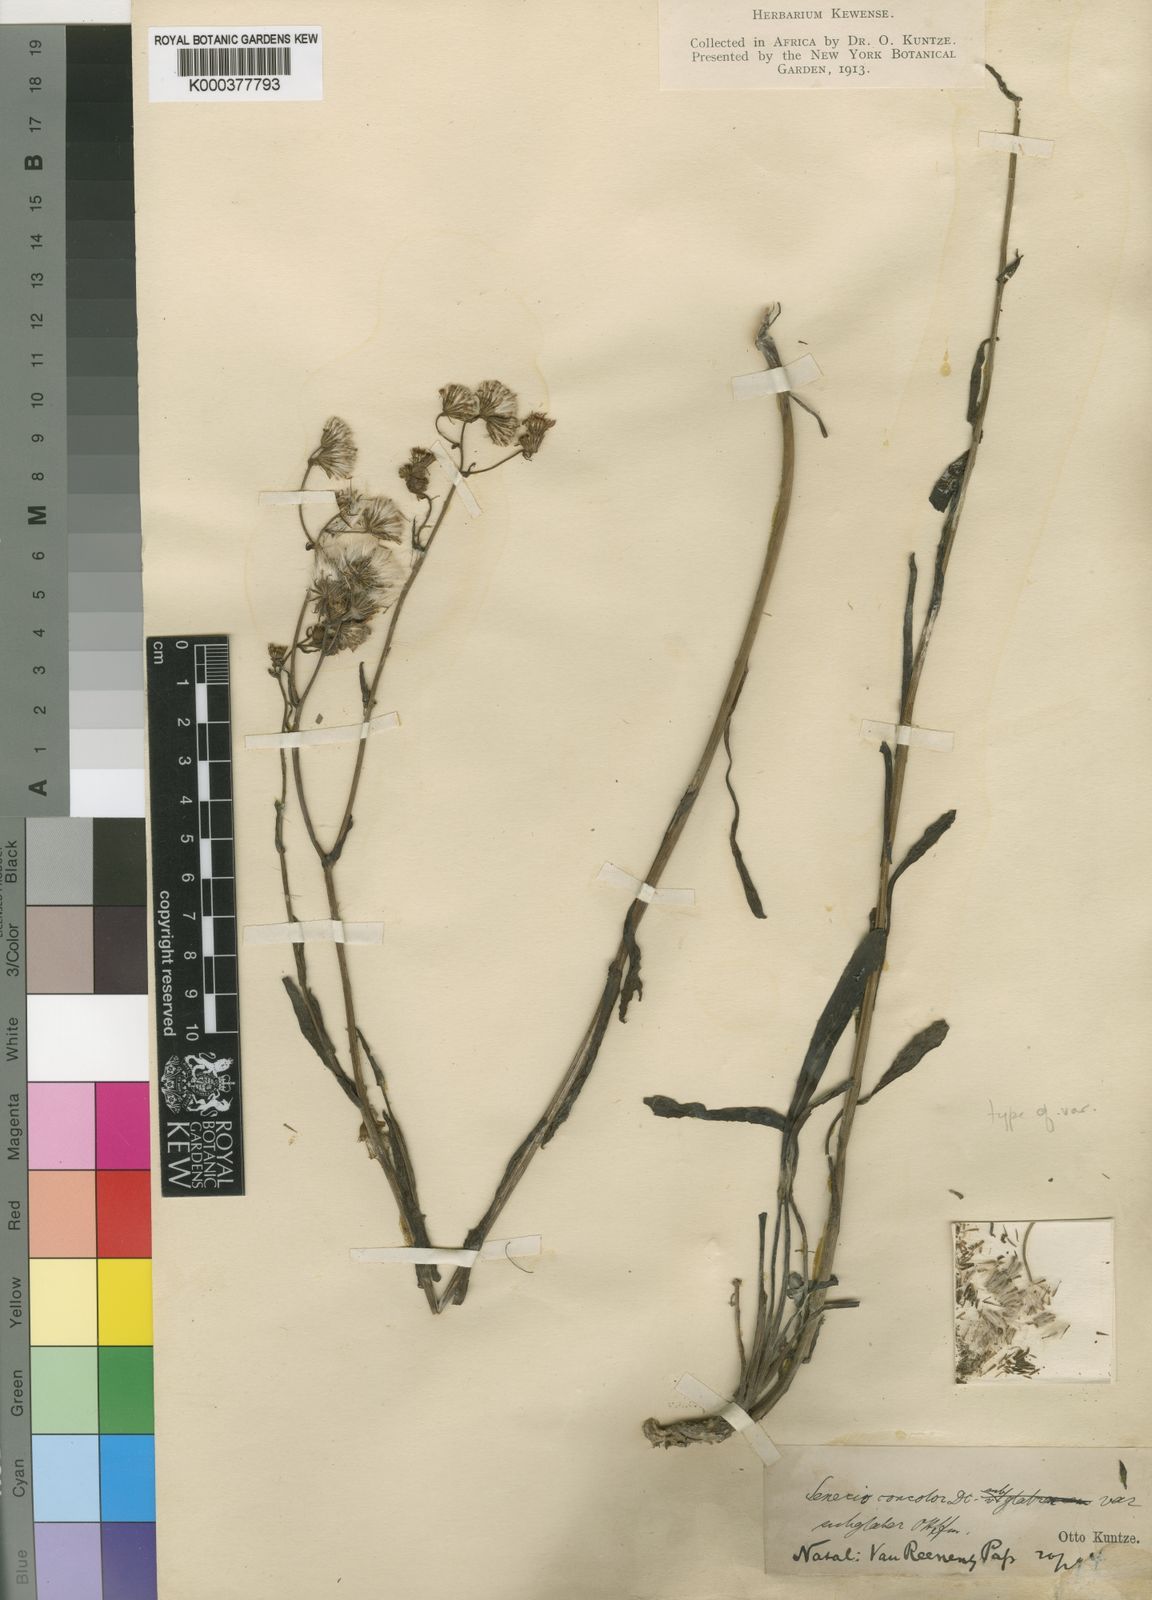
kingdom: Plantae
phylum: Tracheophyta
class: Magnoliopsida
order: Asterales
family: Asteraceae
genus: Senecio
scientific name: Senecio speciosus
